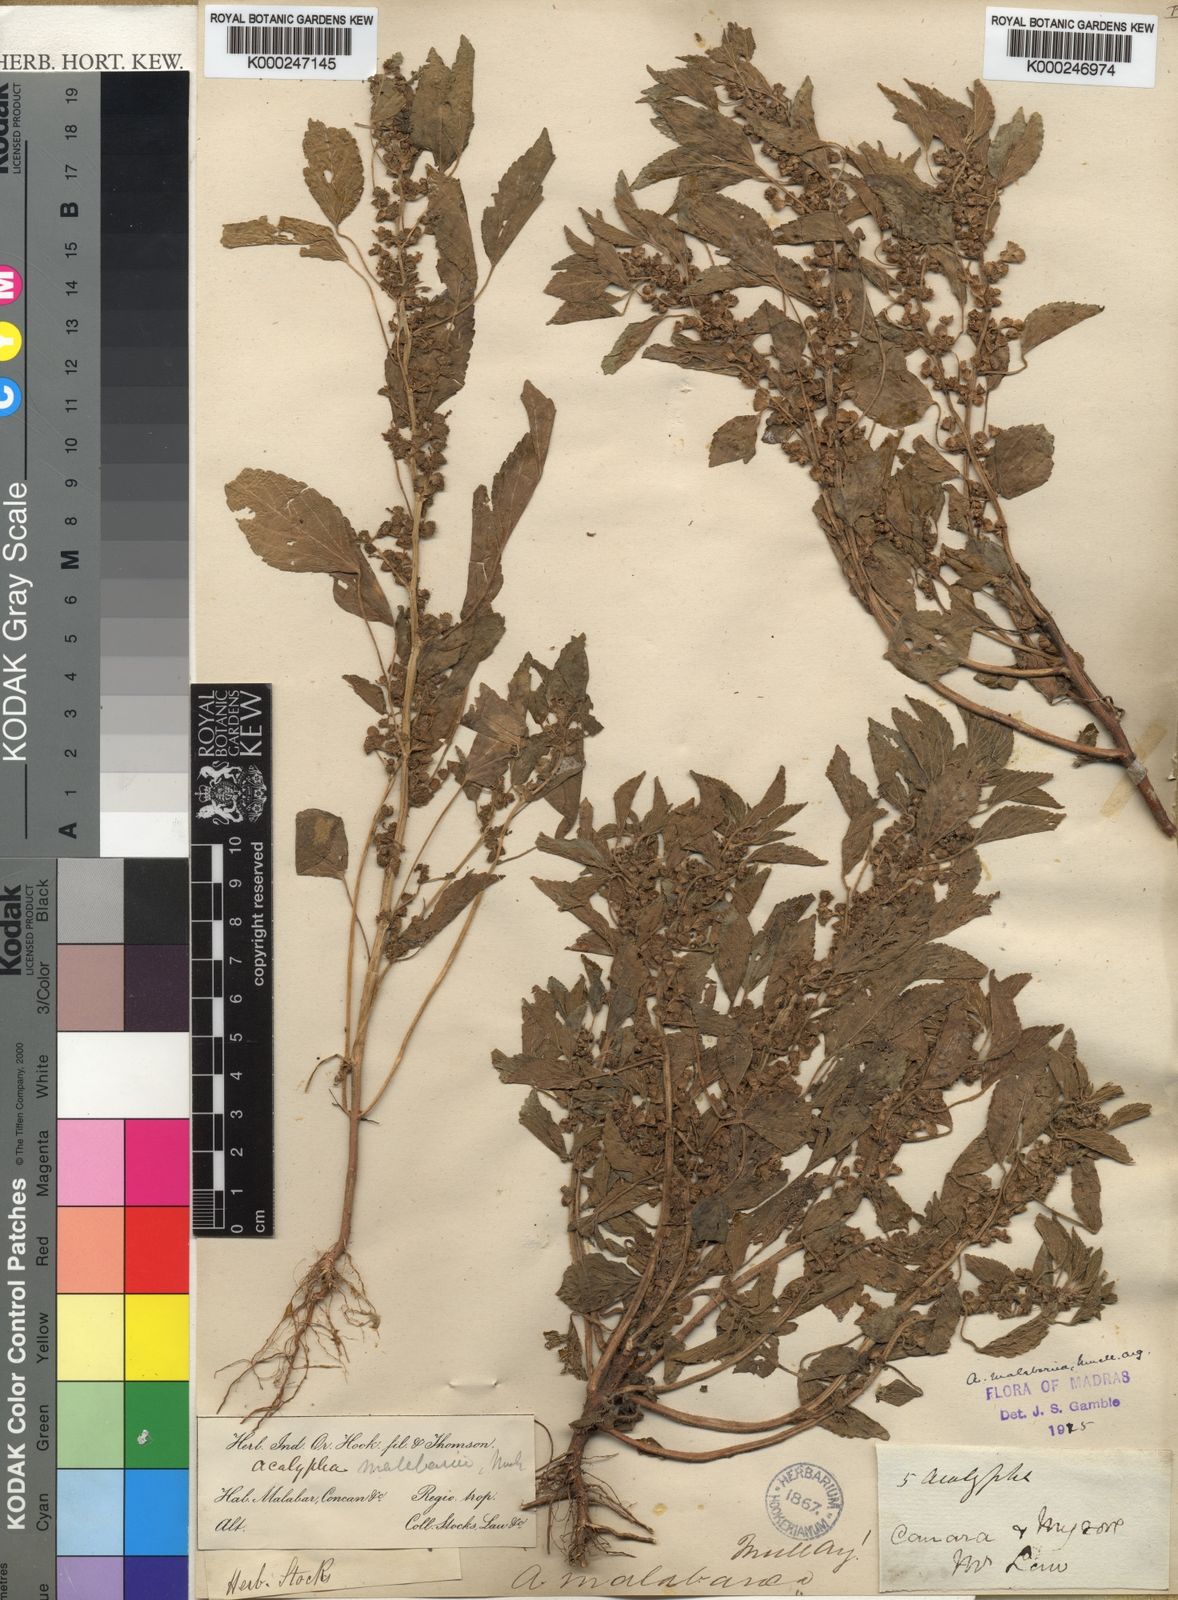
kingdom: Plantae
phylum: Tracheophyta
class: Magnoliopsida
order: Malpighiales
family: Euphorbiaceae
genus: Acalypha
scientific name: Acalypha
